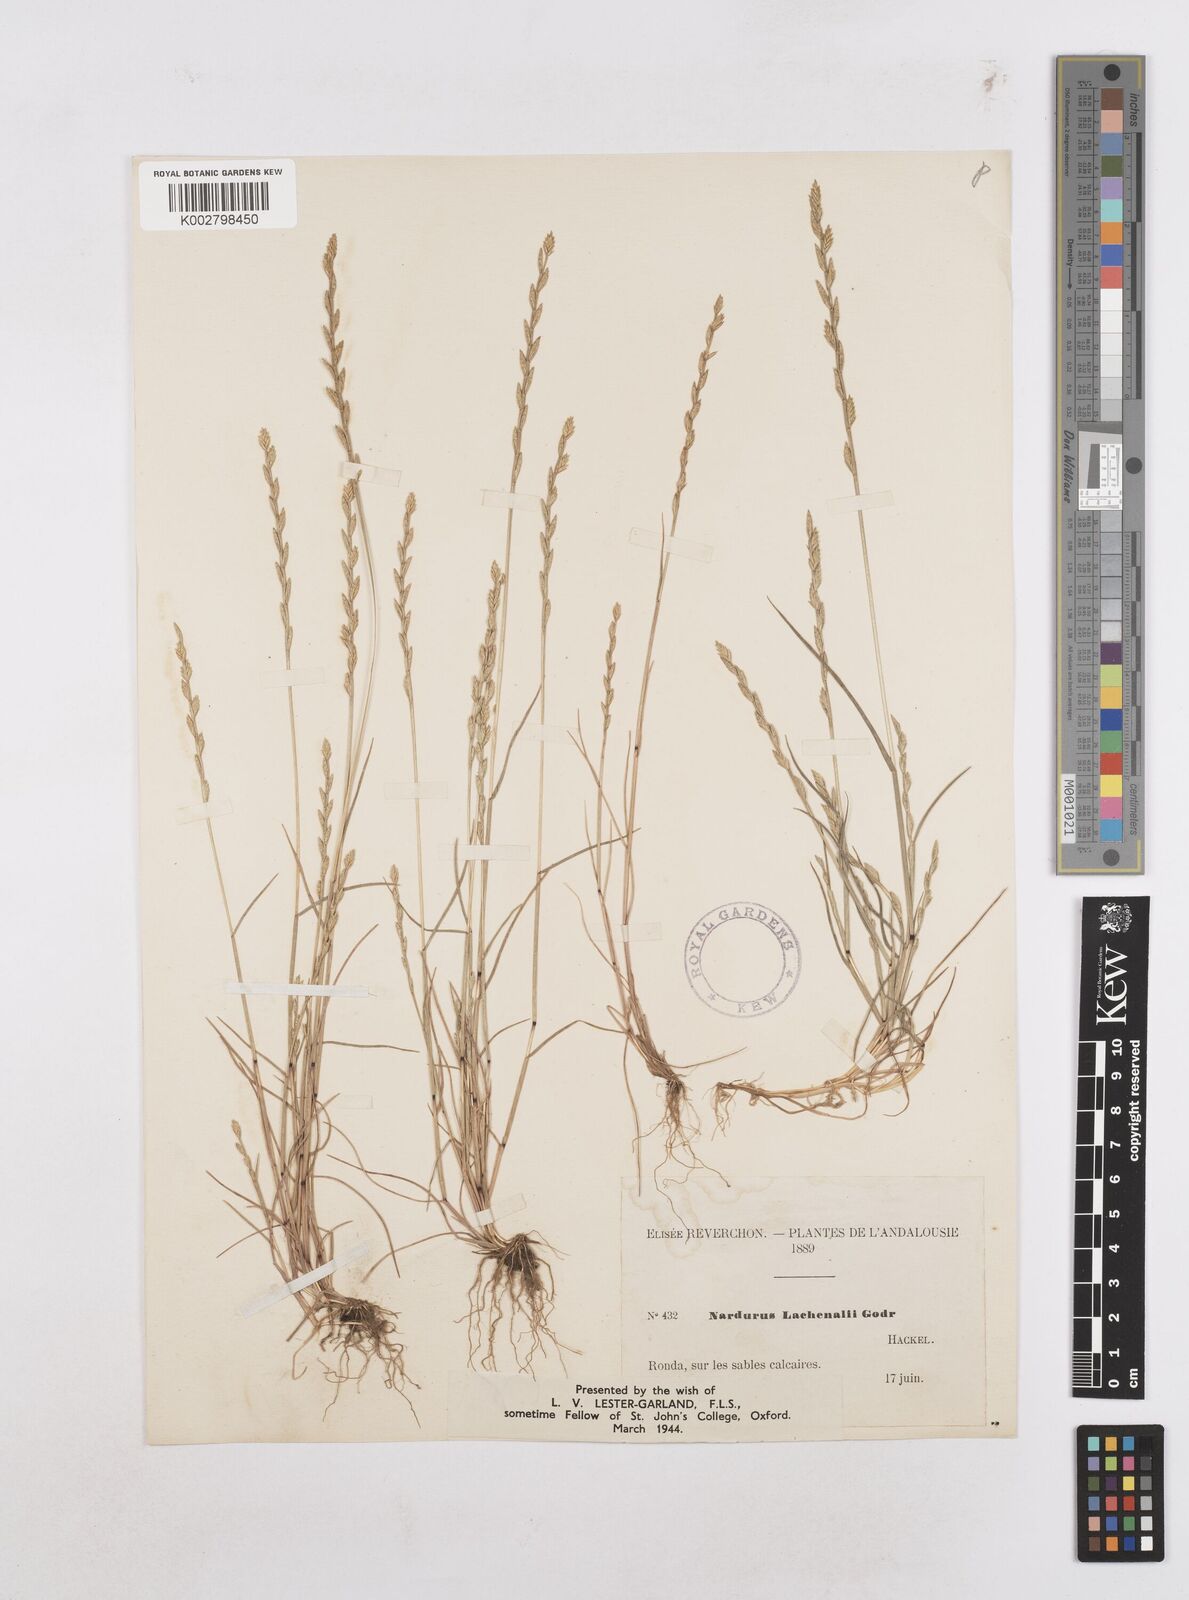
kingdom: Plantae
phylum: Tracheophyta
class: Liliopsida
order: Poales
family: Poaceae
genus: Festuca
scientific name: Festuca lachenalii
